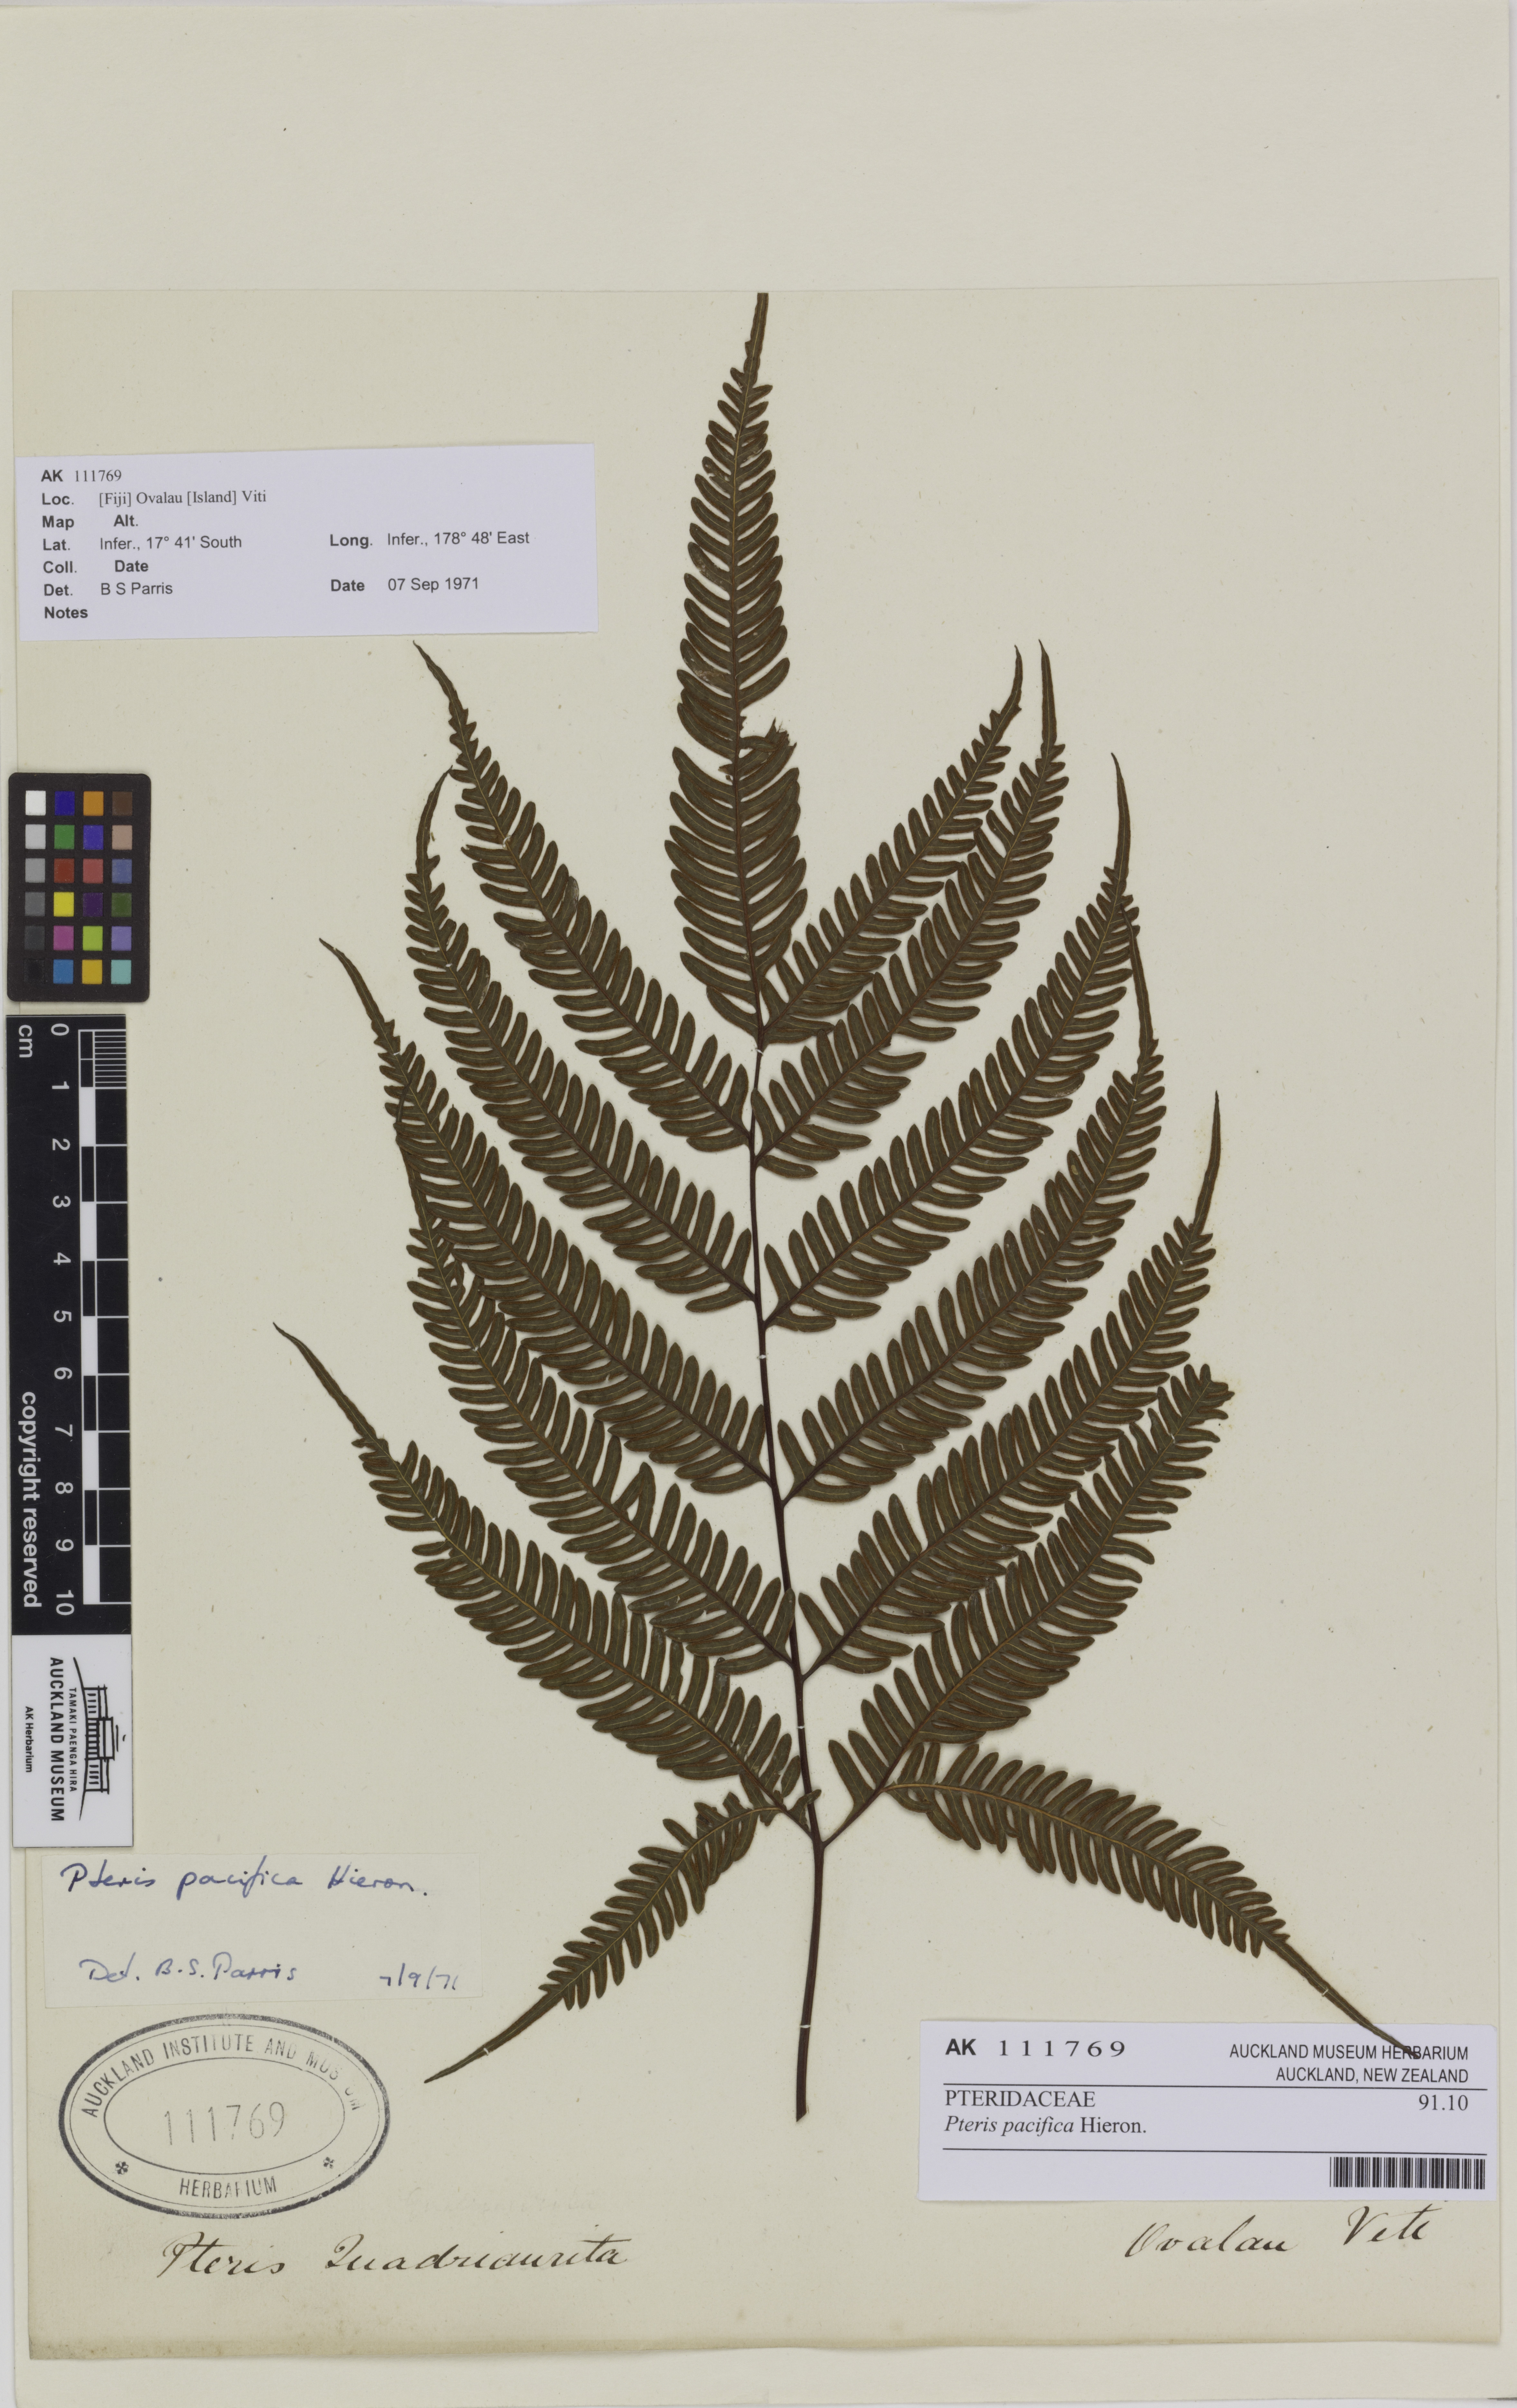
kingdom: Plantae
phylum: Tracheophyta
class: Polypodiopsida
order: Polypodiales
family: Pteridaceae
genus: Pteris
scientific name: Pteris biaurita
